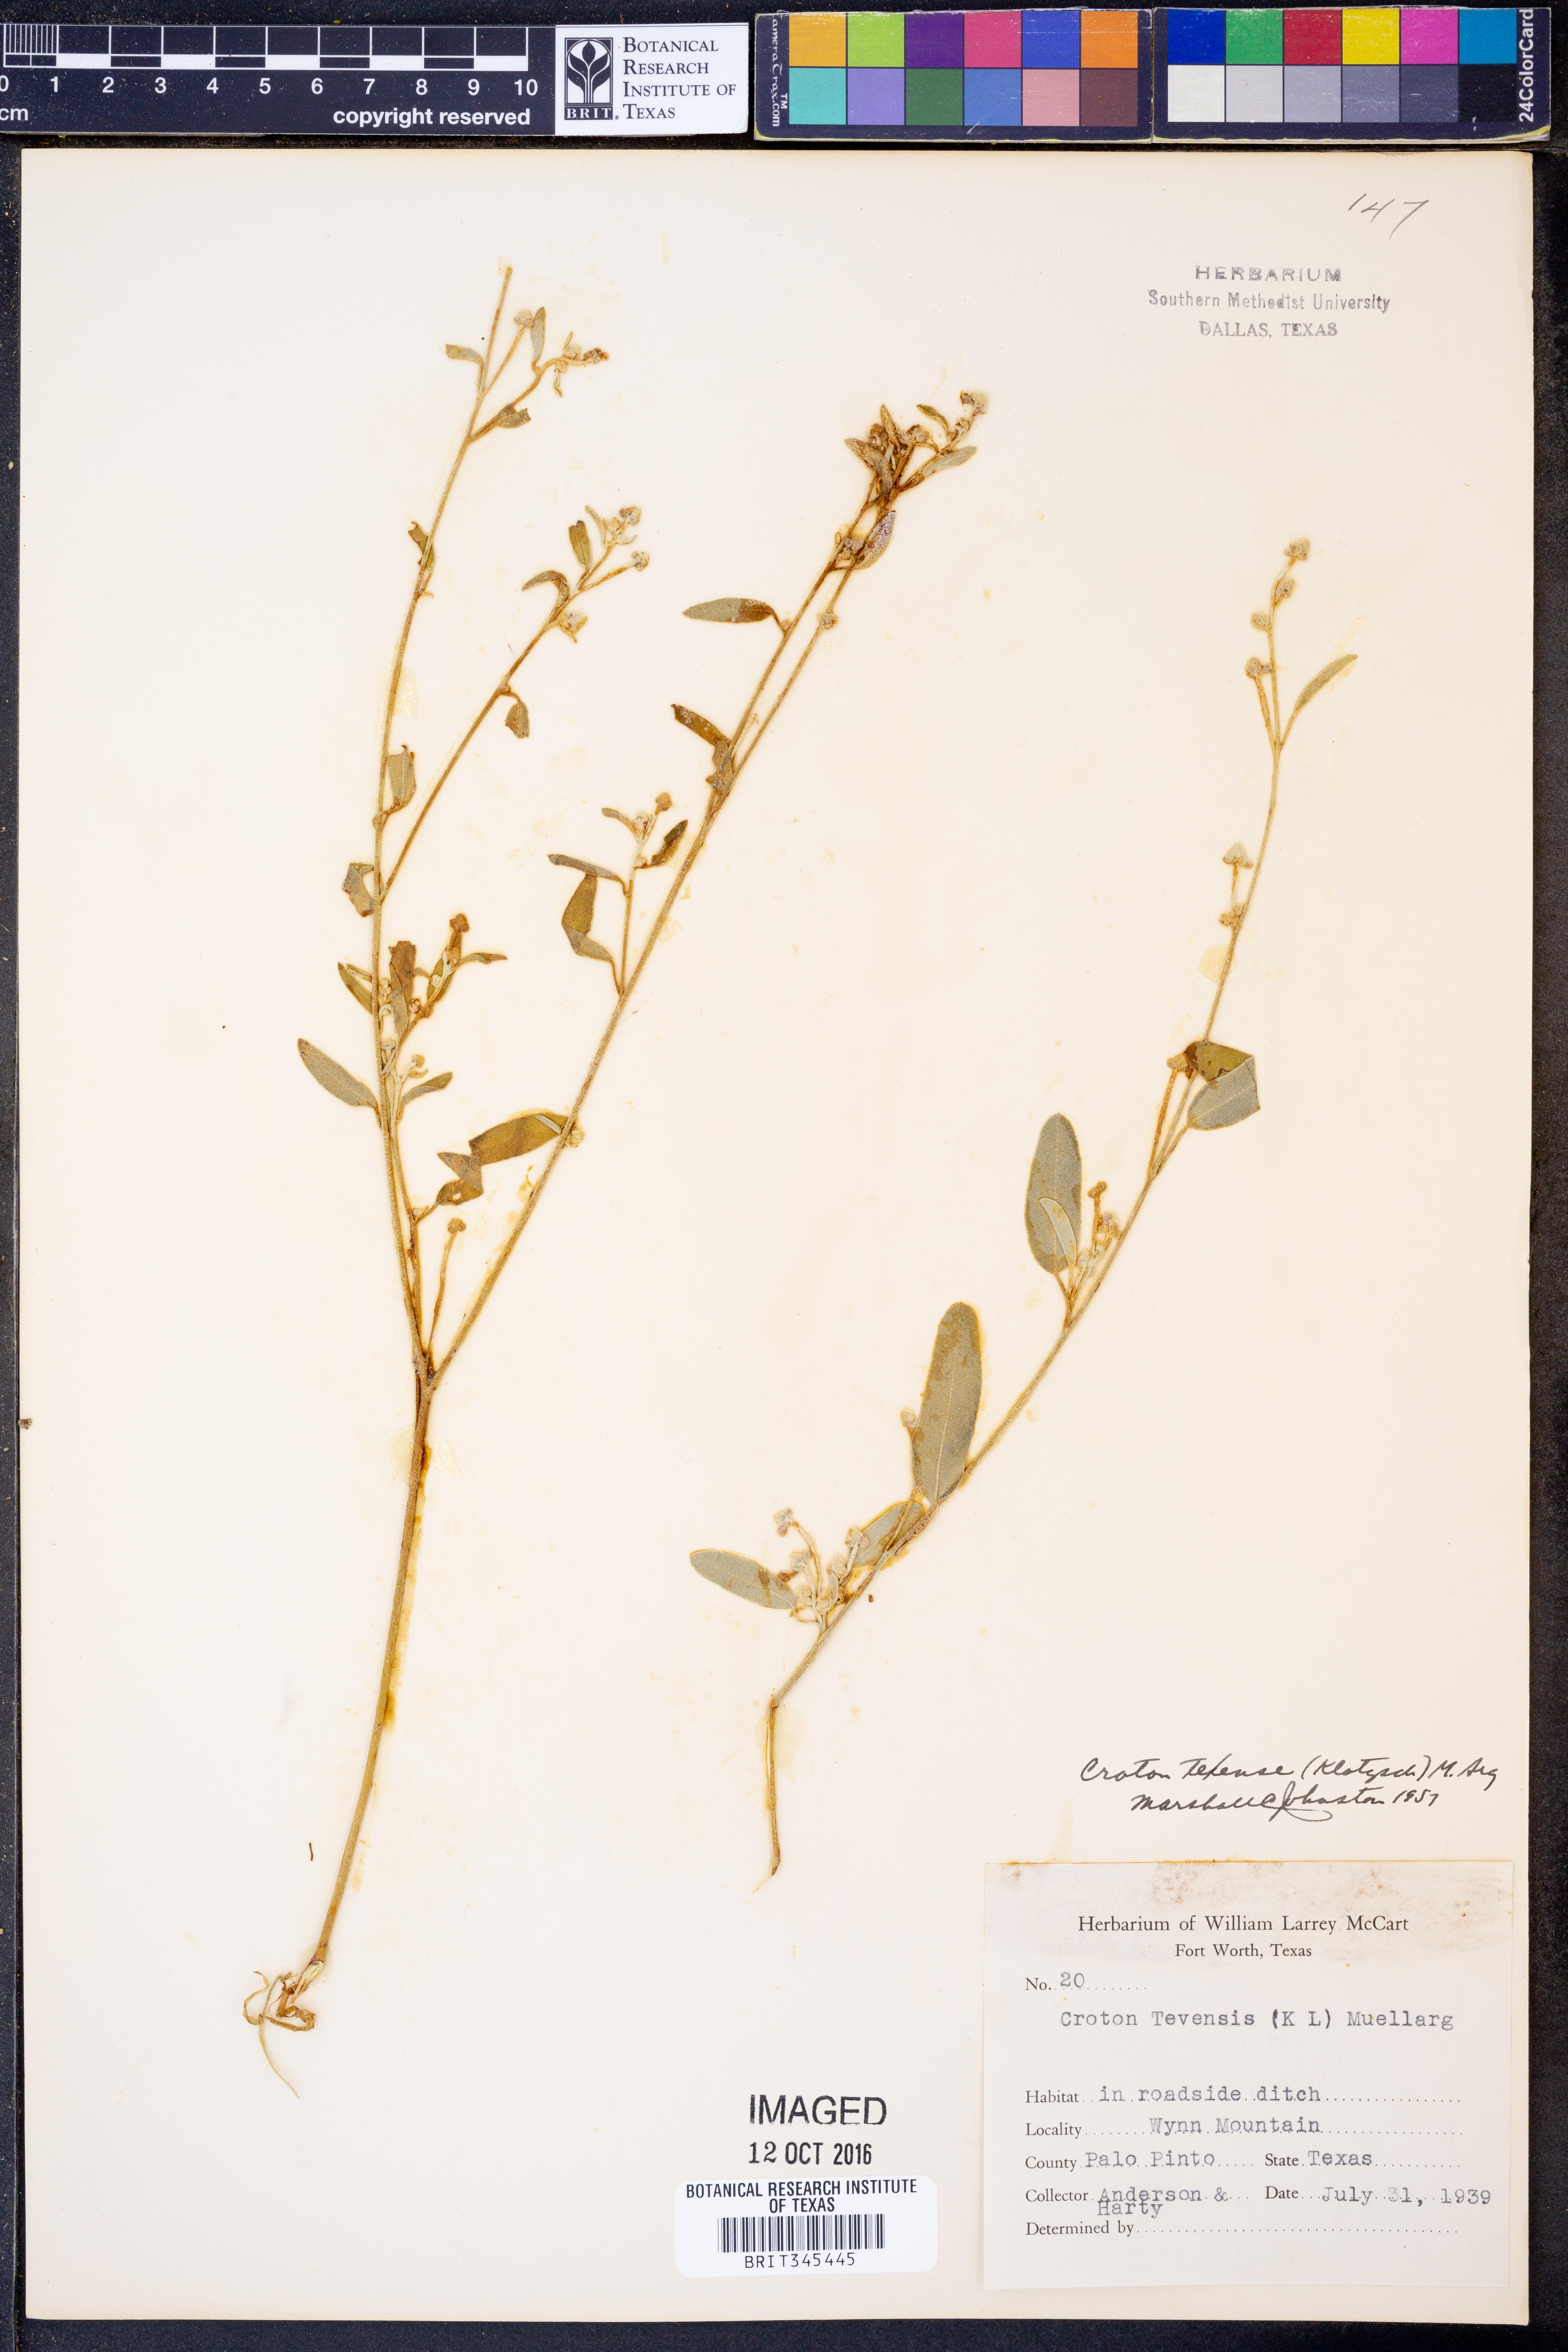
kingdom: Plantae
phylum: Tracheophyta
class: Magnoliopsida
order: Malpighiales
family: Euphorbiaceae
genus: Croton
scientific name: Croton texensis
